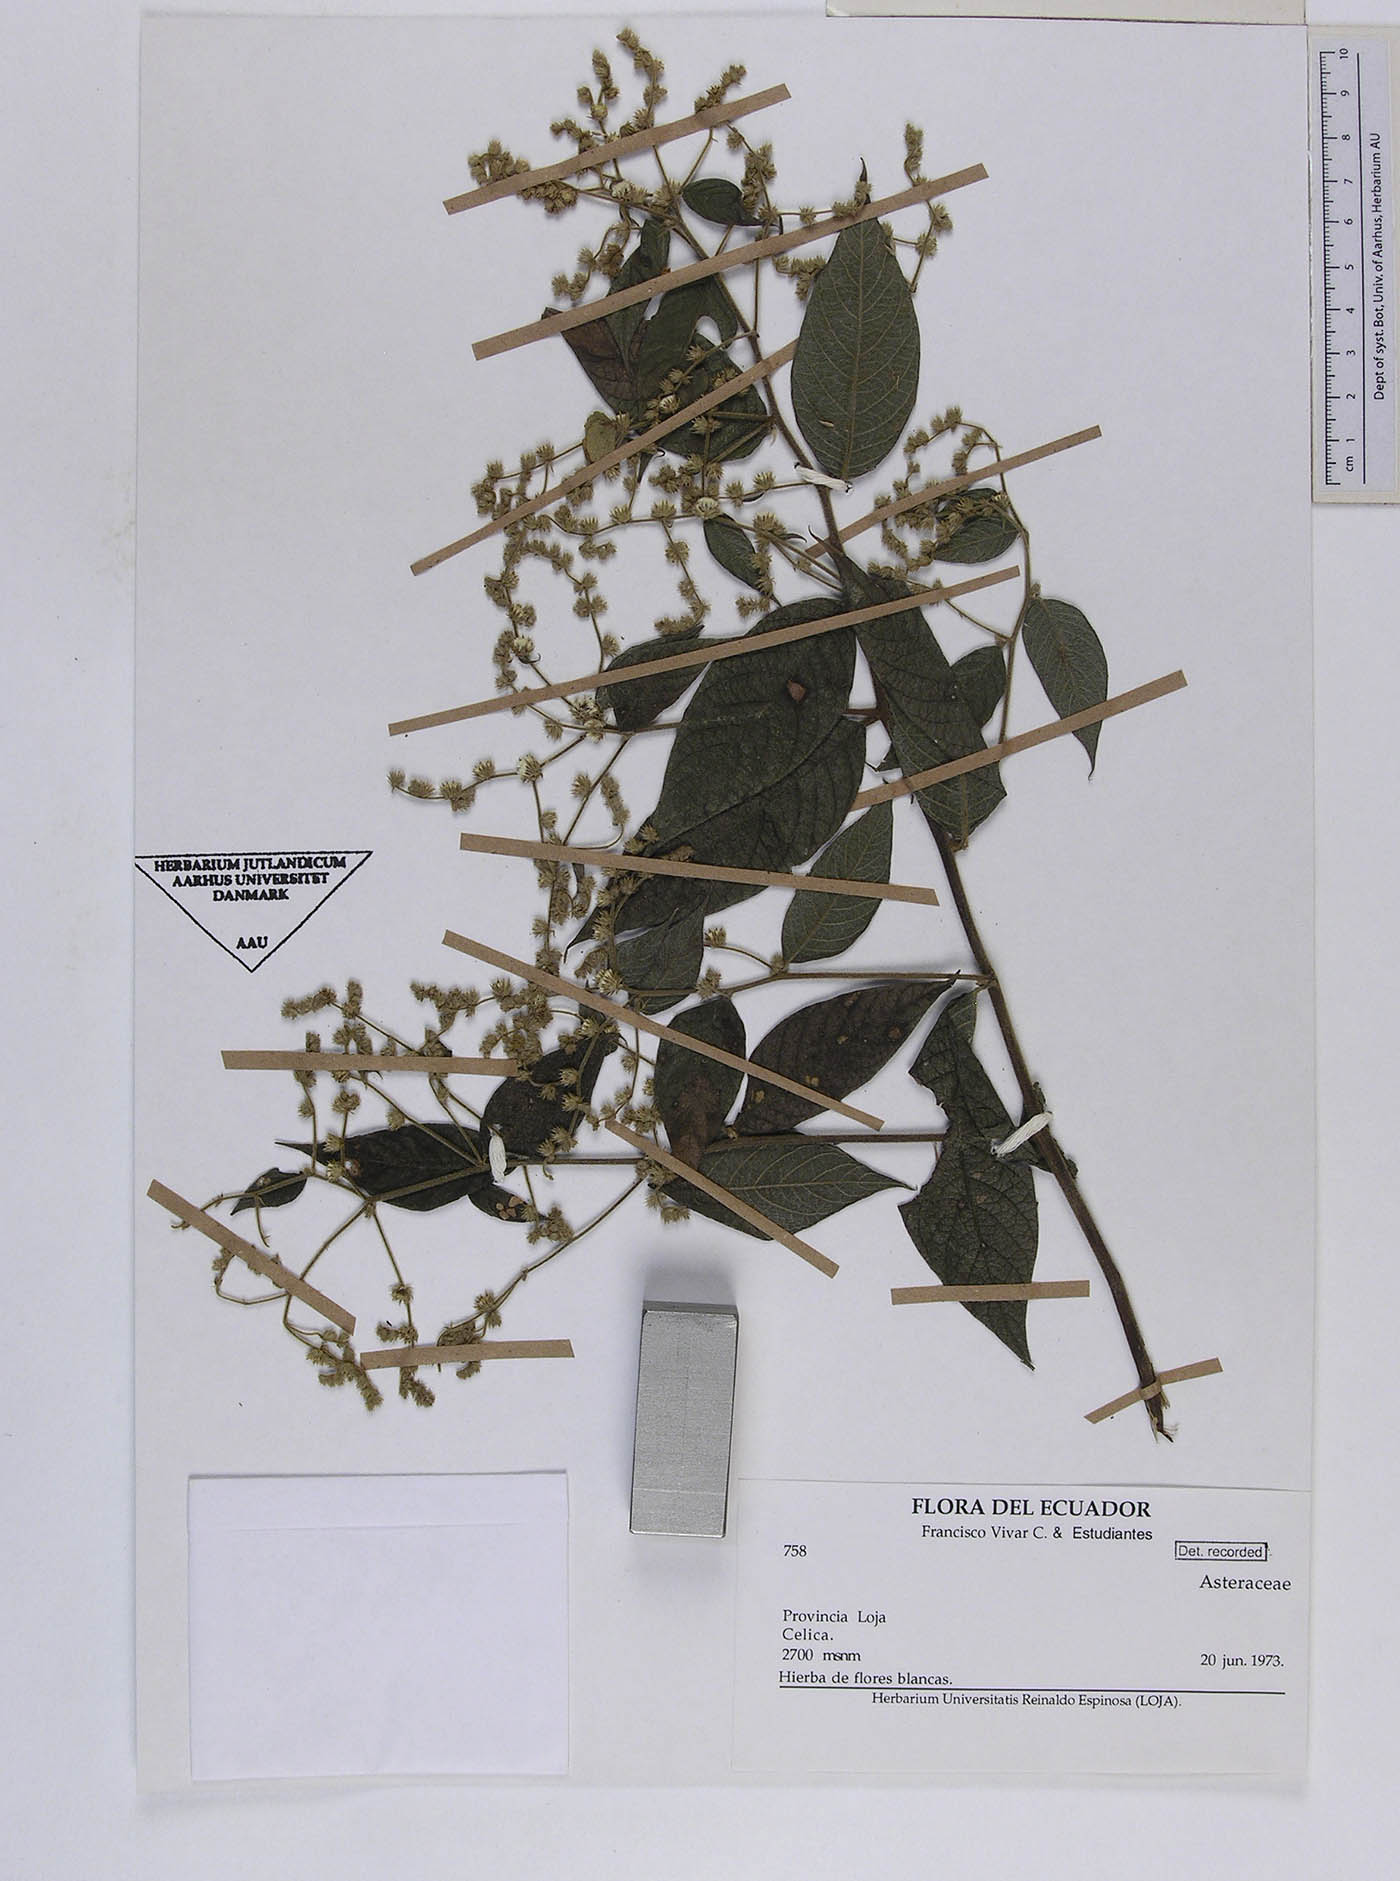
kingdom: Plantae
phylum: Tracheophyta
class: Magnoliopsida
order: Asterales
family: Asteraceae
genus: Lepidaploa
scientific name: Lepidaploa canescens
